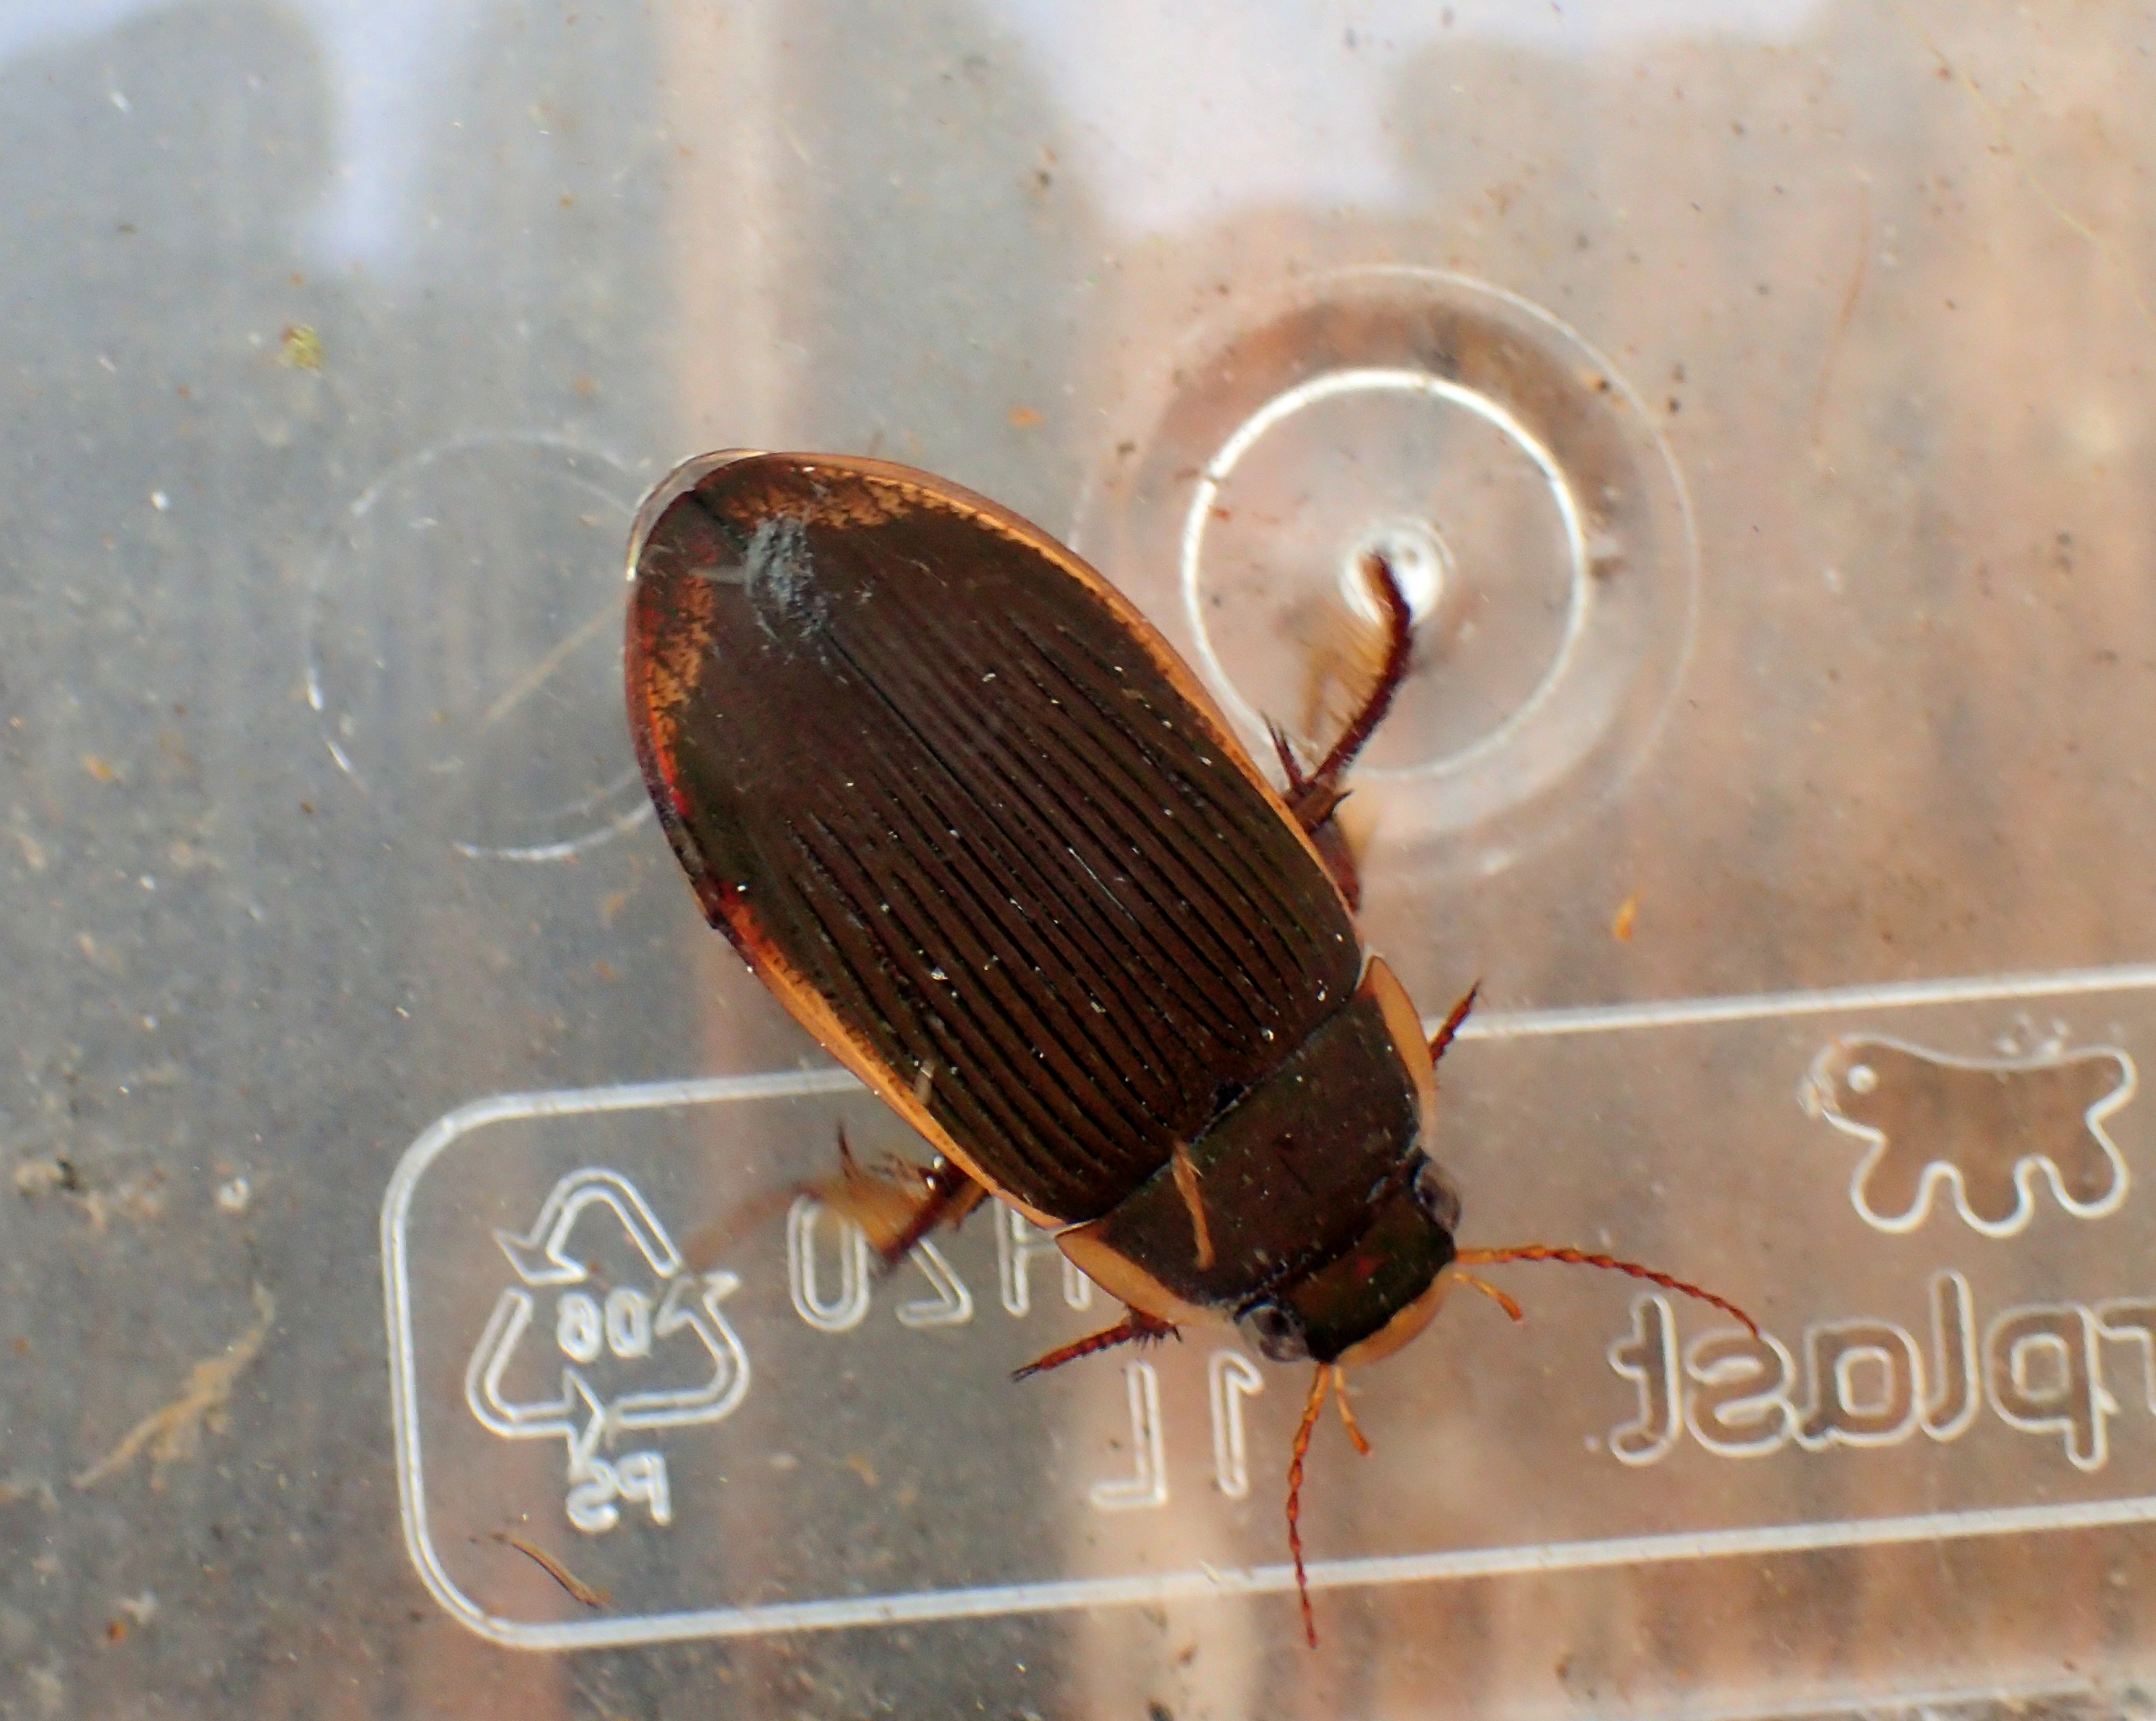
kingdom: Animalia
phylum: Arthropoda
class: Insecta
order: Coleoptera
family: Dytiscidae
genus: Dytiscus
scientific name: Dytiscus semisulcatus
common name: Sortbuget vandkalv
